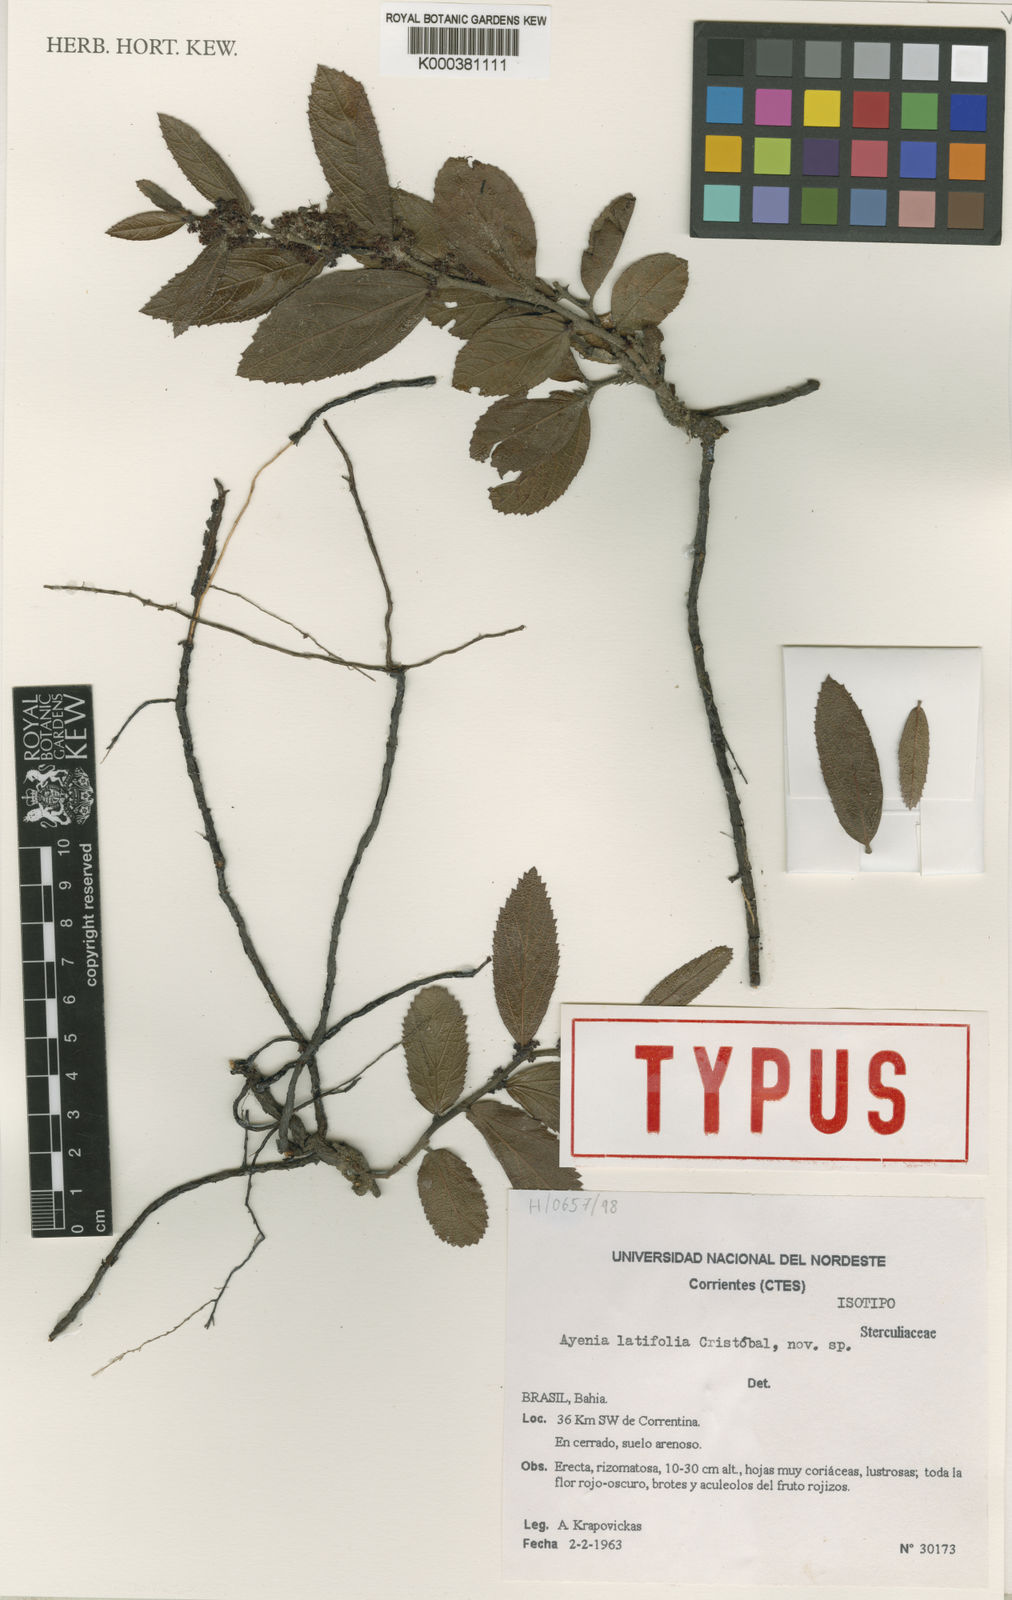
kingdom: Plantae
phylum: Tracheophyta
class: Magnoliopsida
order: Malvales
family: Malvaceae
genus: Ayenia
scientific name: Ayenia
